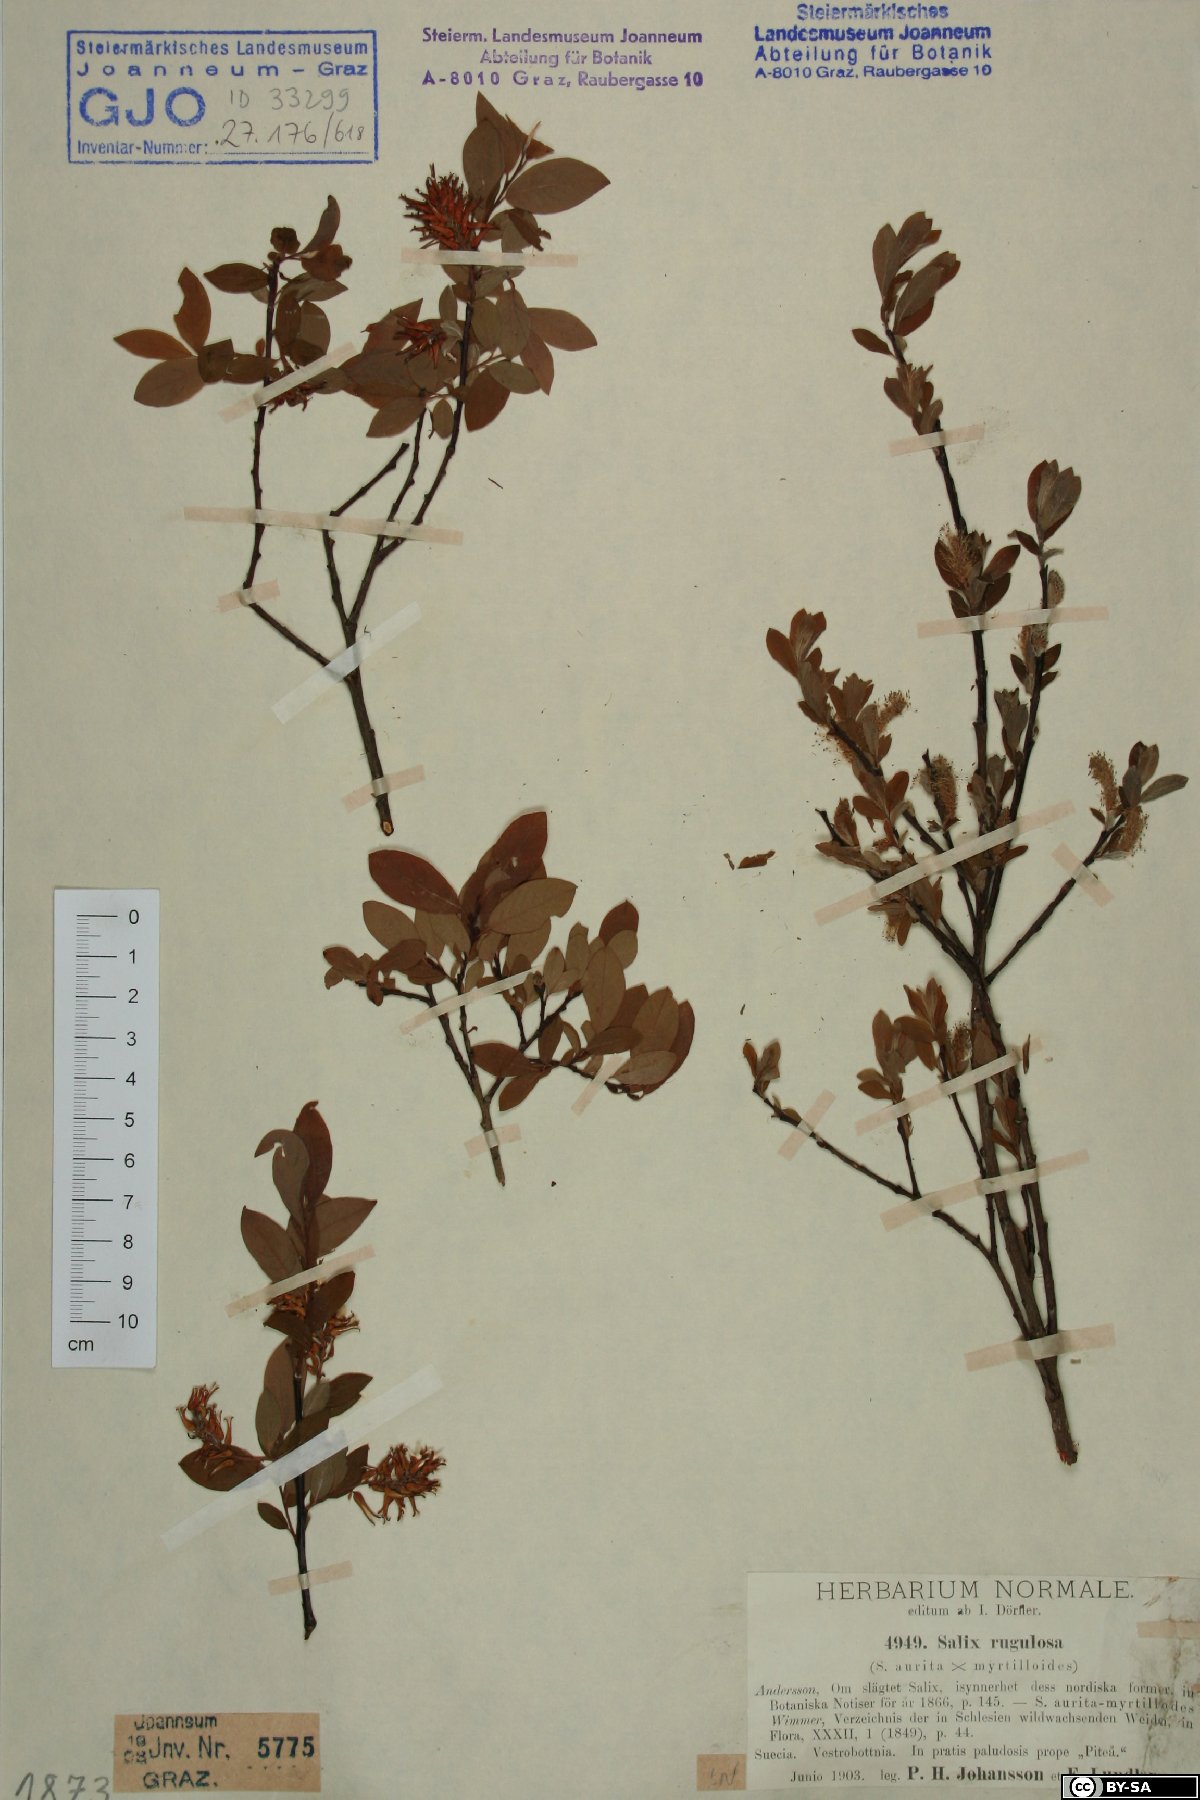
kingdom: Plantae
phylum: Tracheophyta
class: Magnoliopsida
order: Malpighiales
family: Salicaceae
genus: Salix
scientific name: Salix rugulosa
